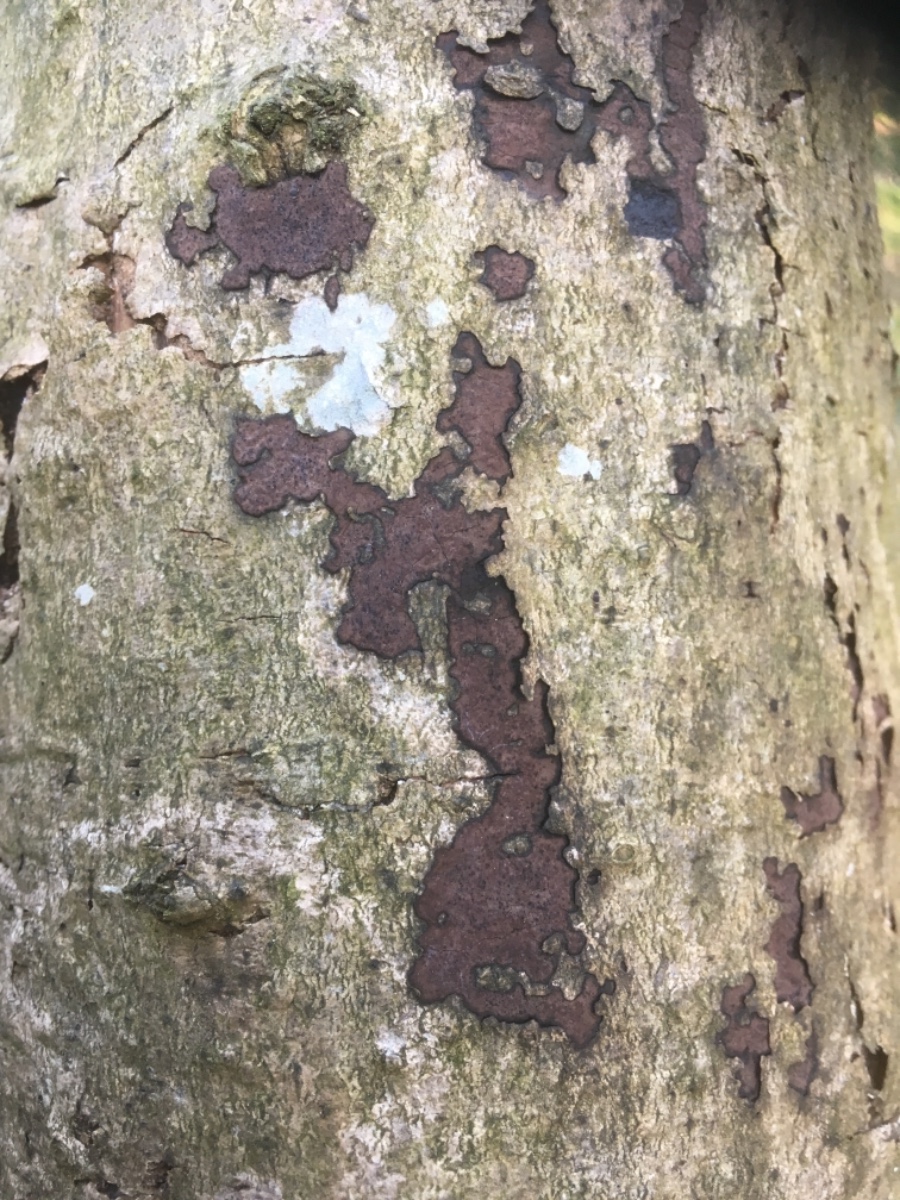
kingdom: Fungi
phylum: Ascomycota
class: Sordariomycetes
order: Xylariales
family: Hypoxylaceae
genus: Hypoxylon
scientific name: Hypoxylon petriniae
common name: nedsænket kulbær
